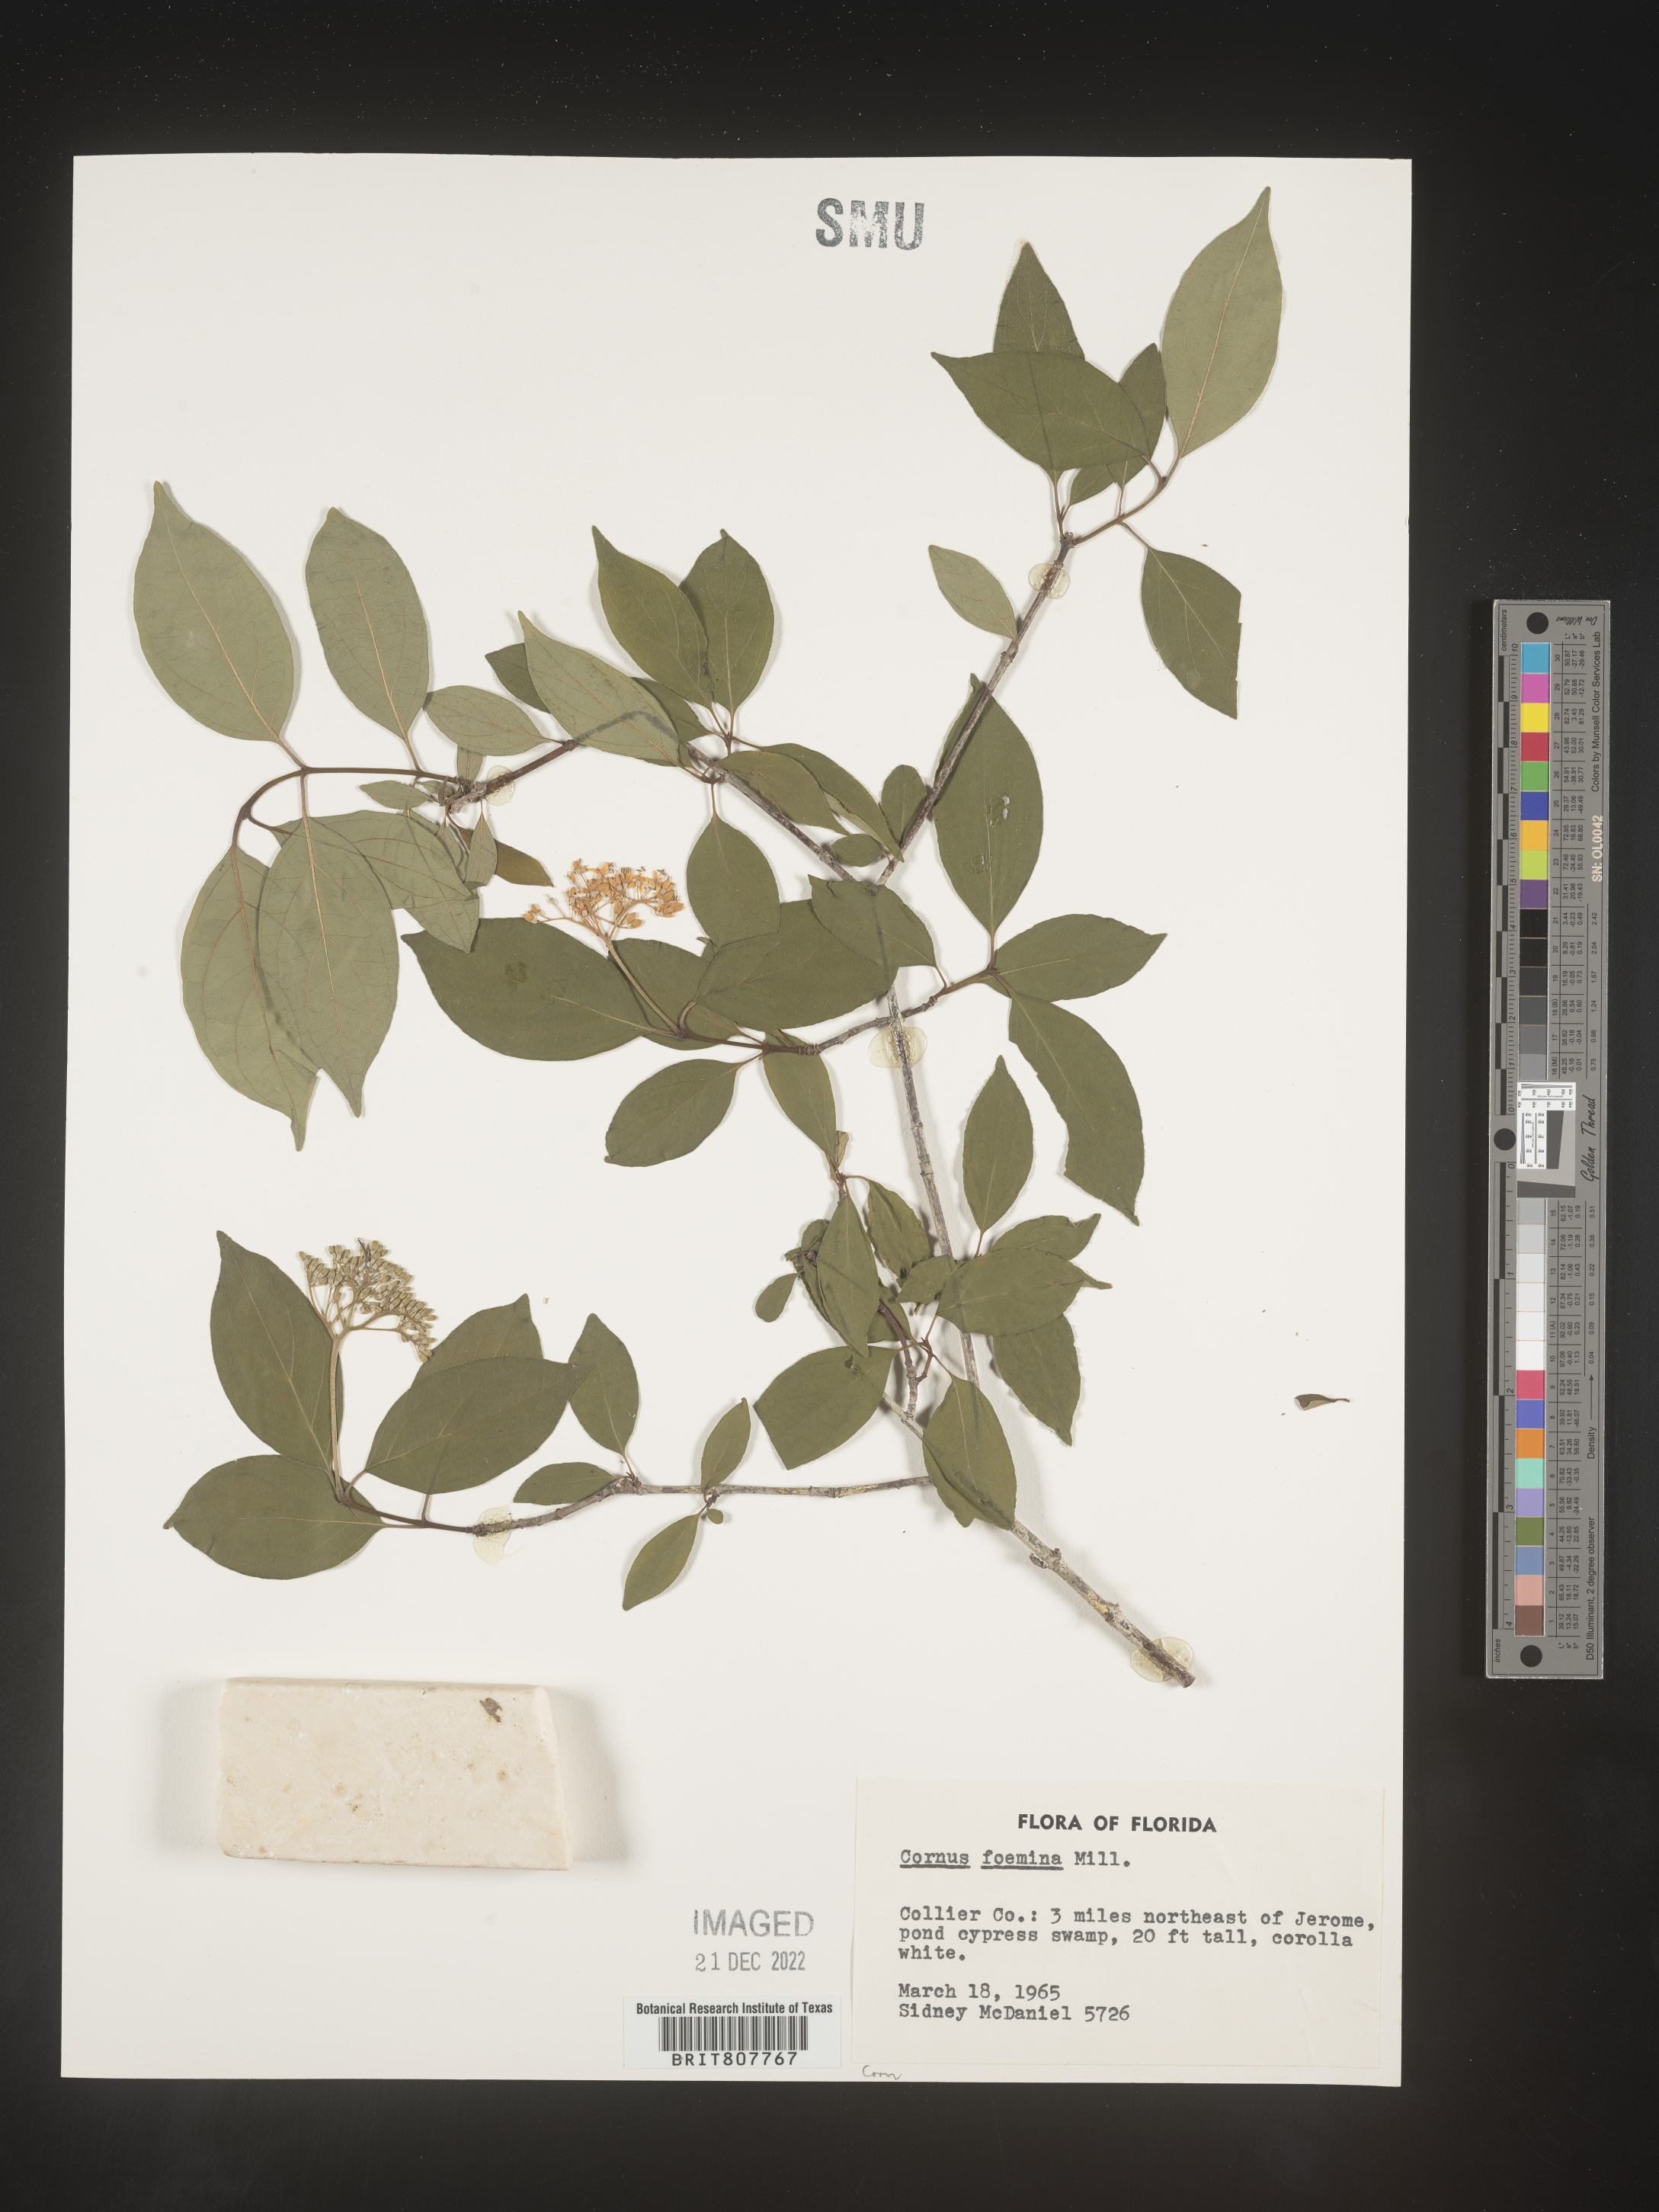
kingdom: Plantae
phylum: Tracheophyta
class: Magnoliopsida
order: Cornales
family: Cornaceae
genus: Cornus
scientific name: Cornus foemina
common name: Swamp dogwood
